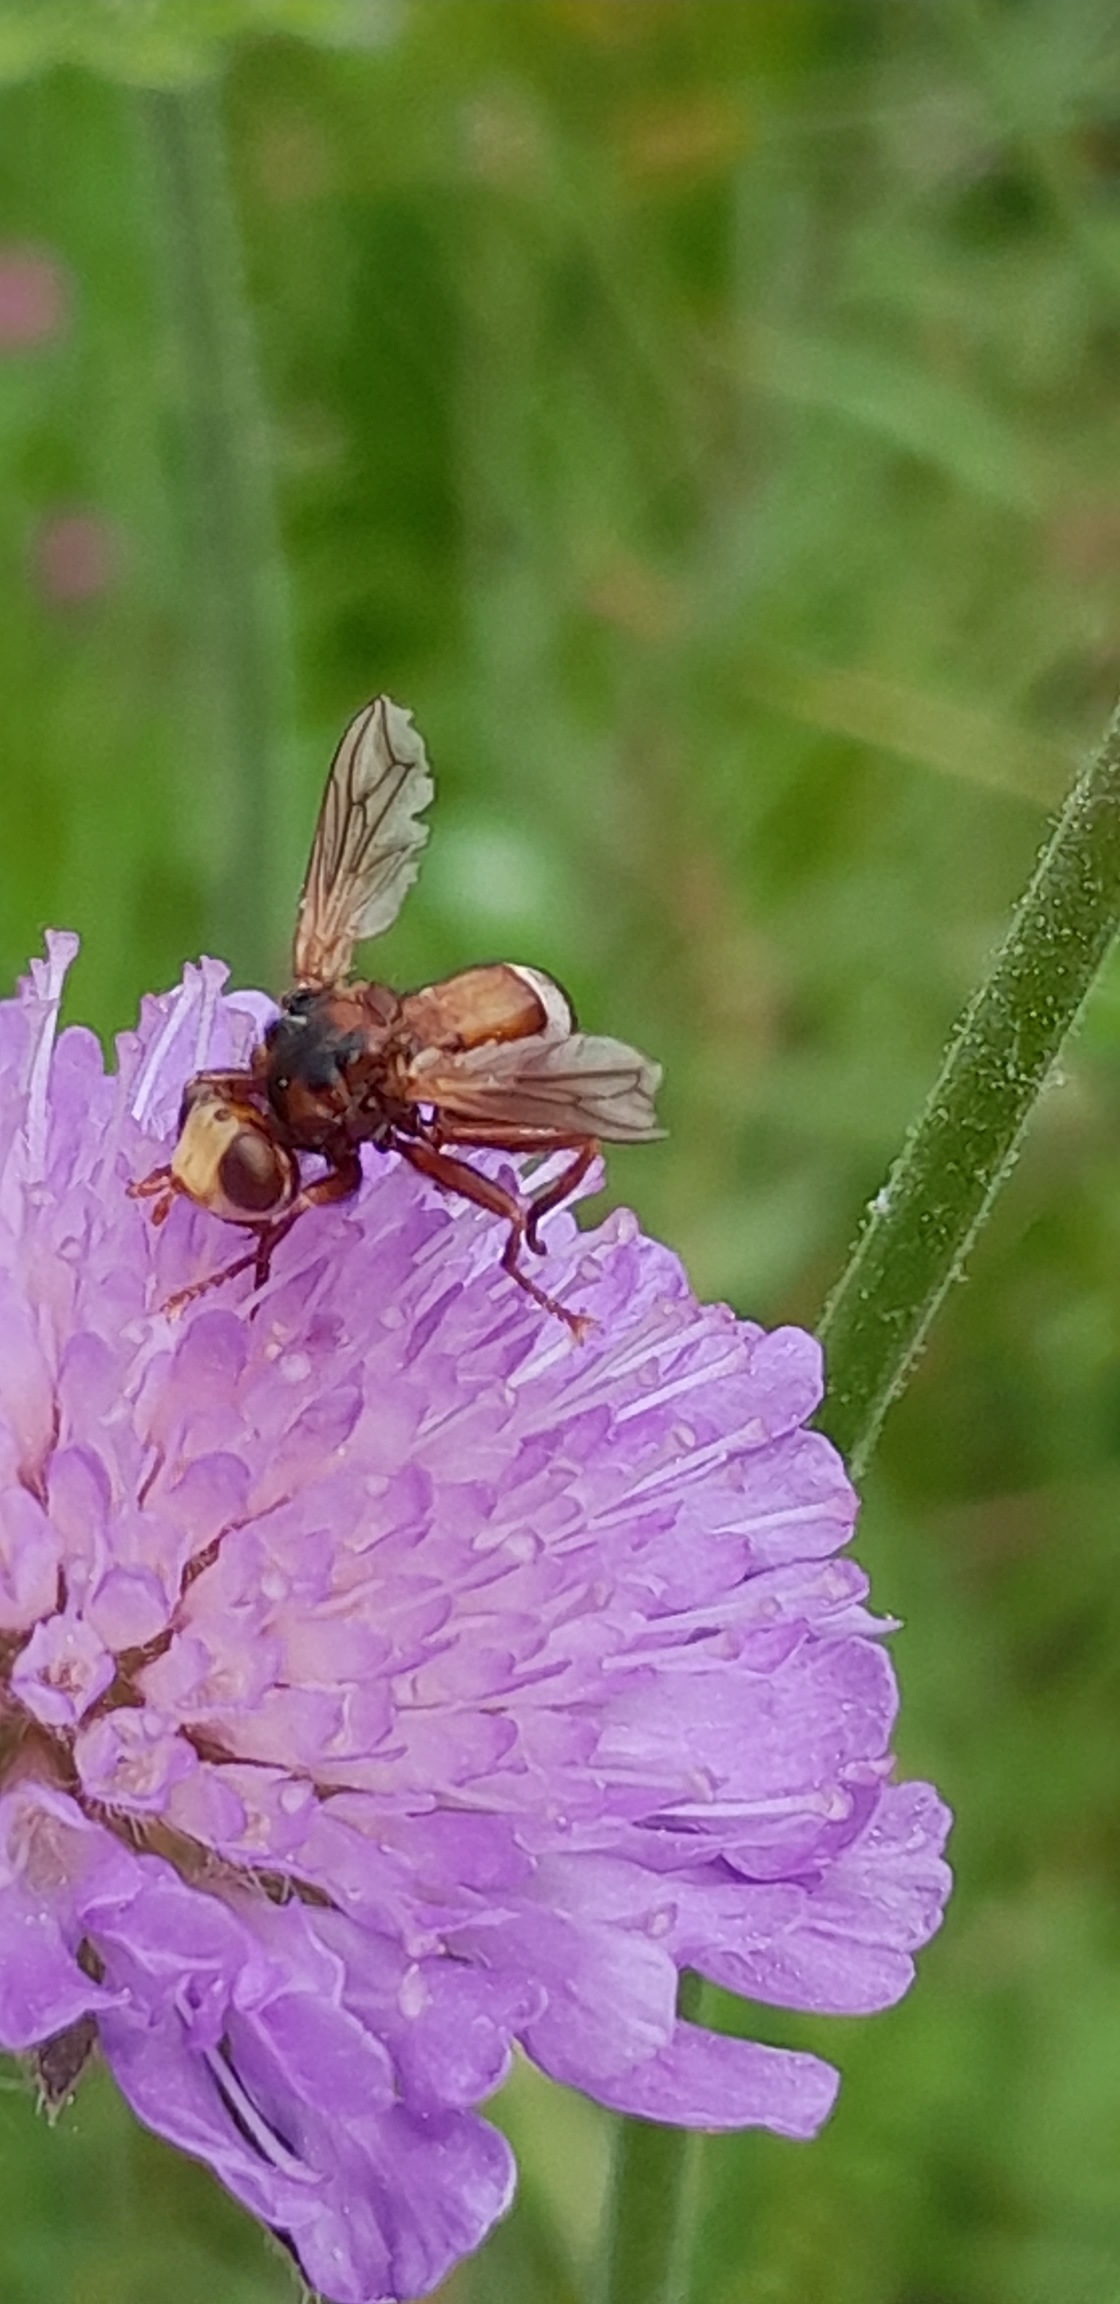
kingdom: Animalia
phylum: Arthropoda
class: Insecta
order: Diptera
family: Conopidae
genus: Sicus
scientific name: Sicus ferrugineus
